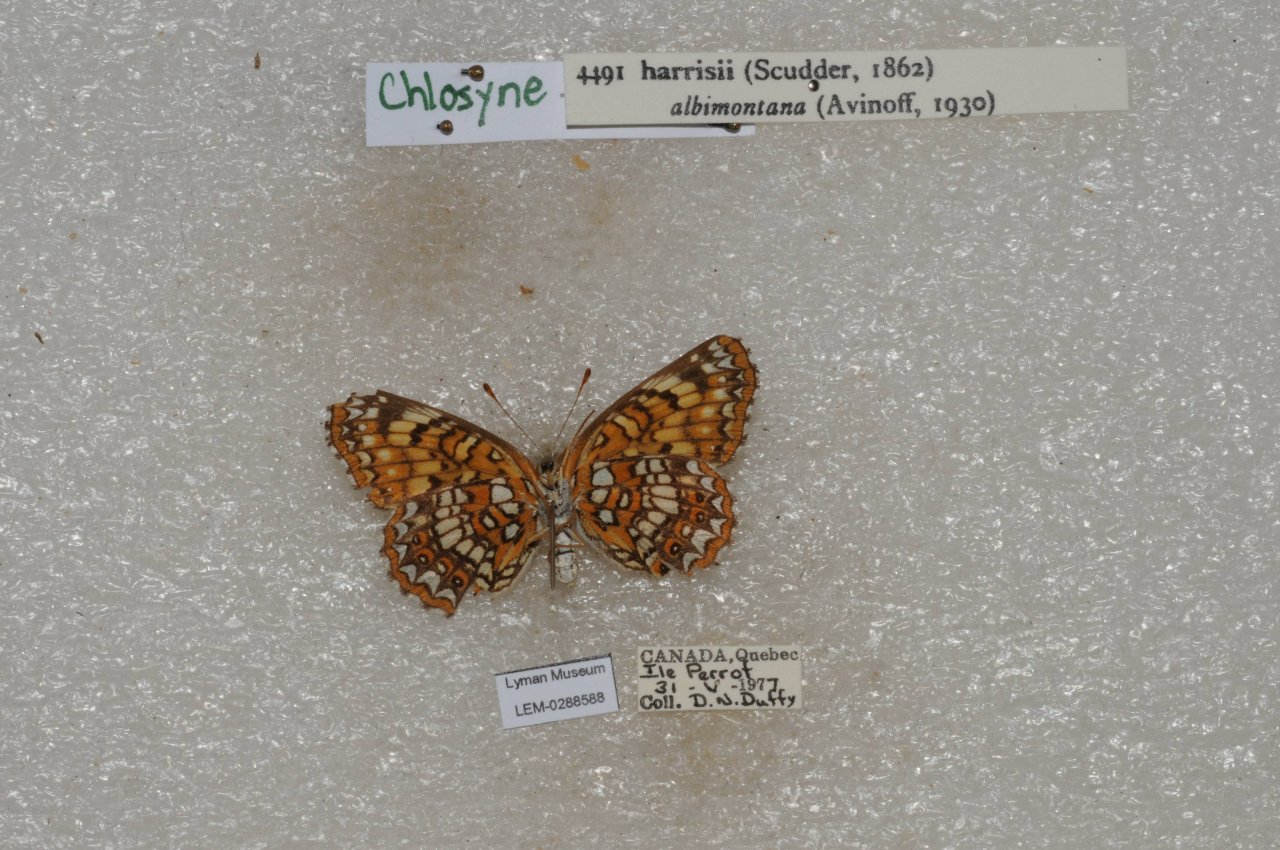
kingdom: Animalia
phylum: Arthropoda
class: Insecta
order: Lepidoptera
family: Nymphalidae
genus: Chlosyne
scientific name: Chlosyne harrisii
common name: Harris's Checkerspot
